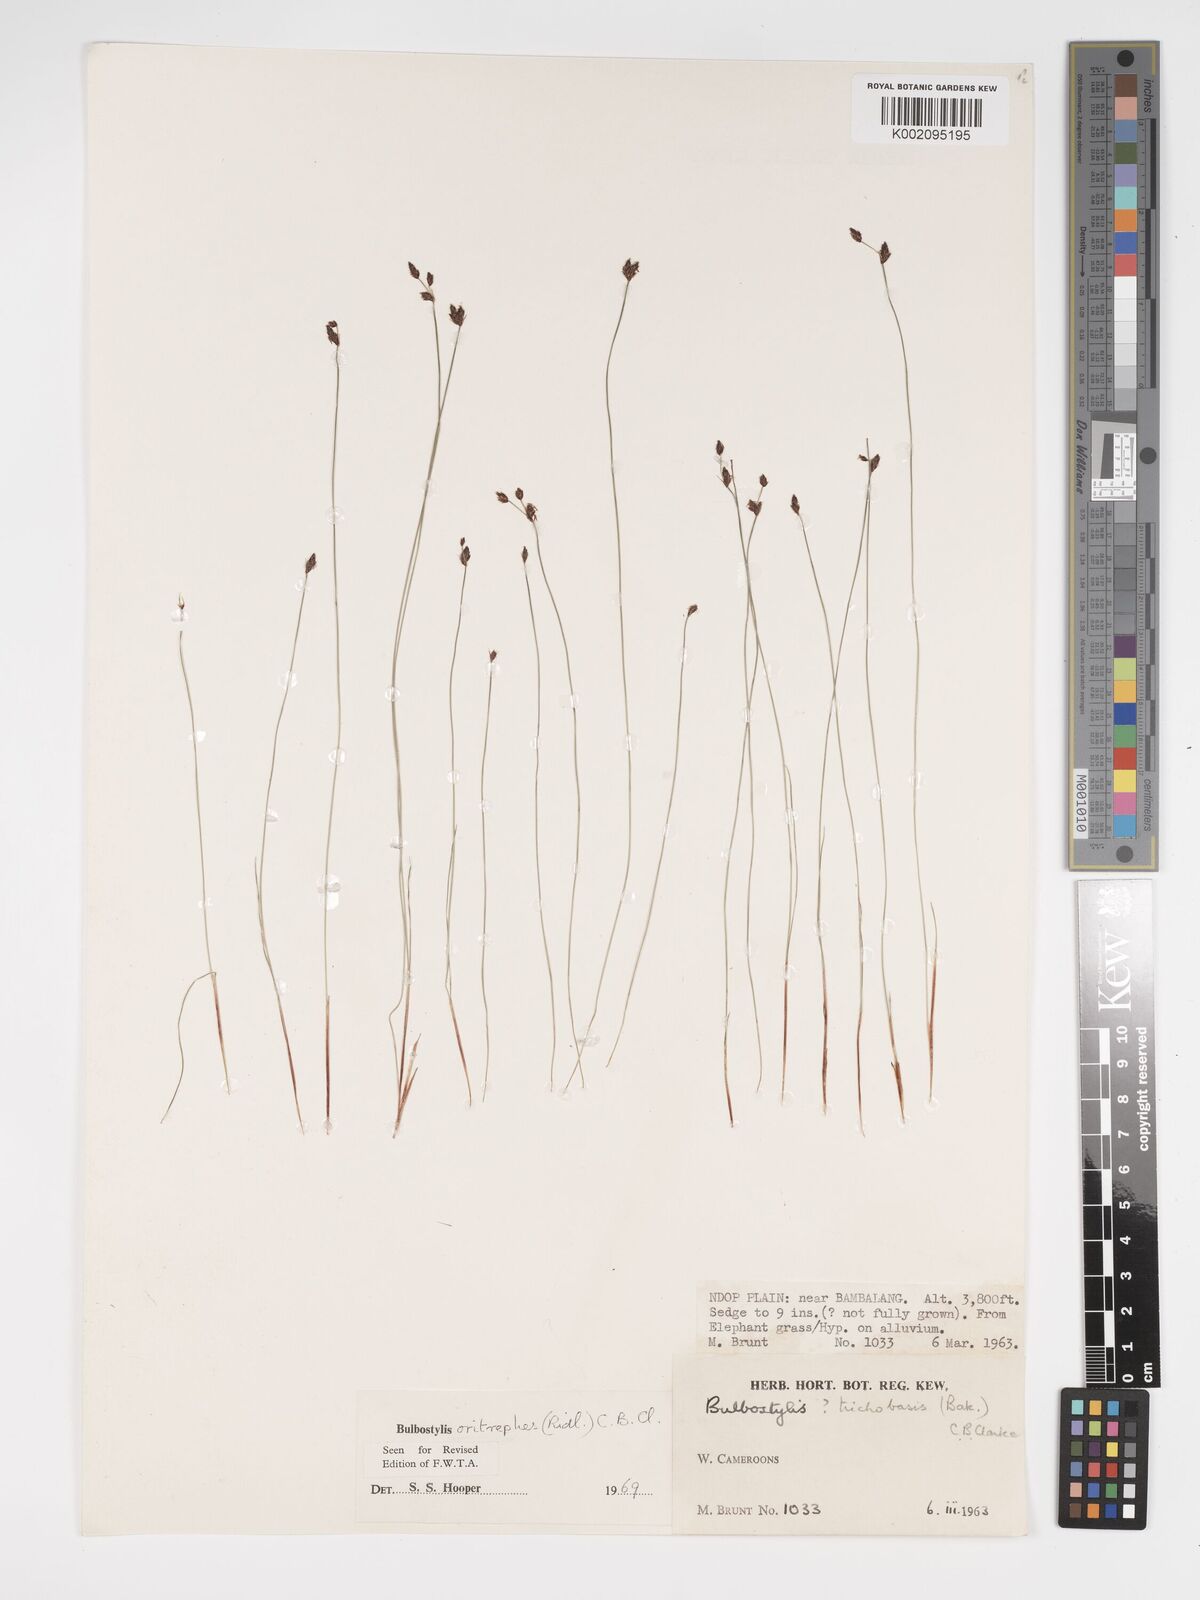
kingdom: Plantae
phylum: Tracheophyta
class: Liliopsida
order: Poales
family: Cyperaceae
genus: Bulbostylis
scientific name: Bulbostylis oritrephes
